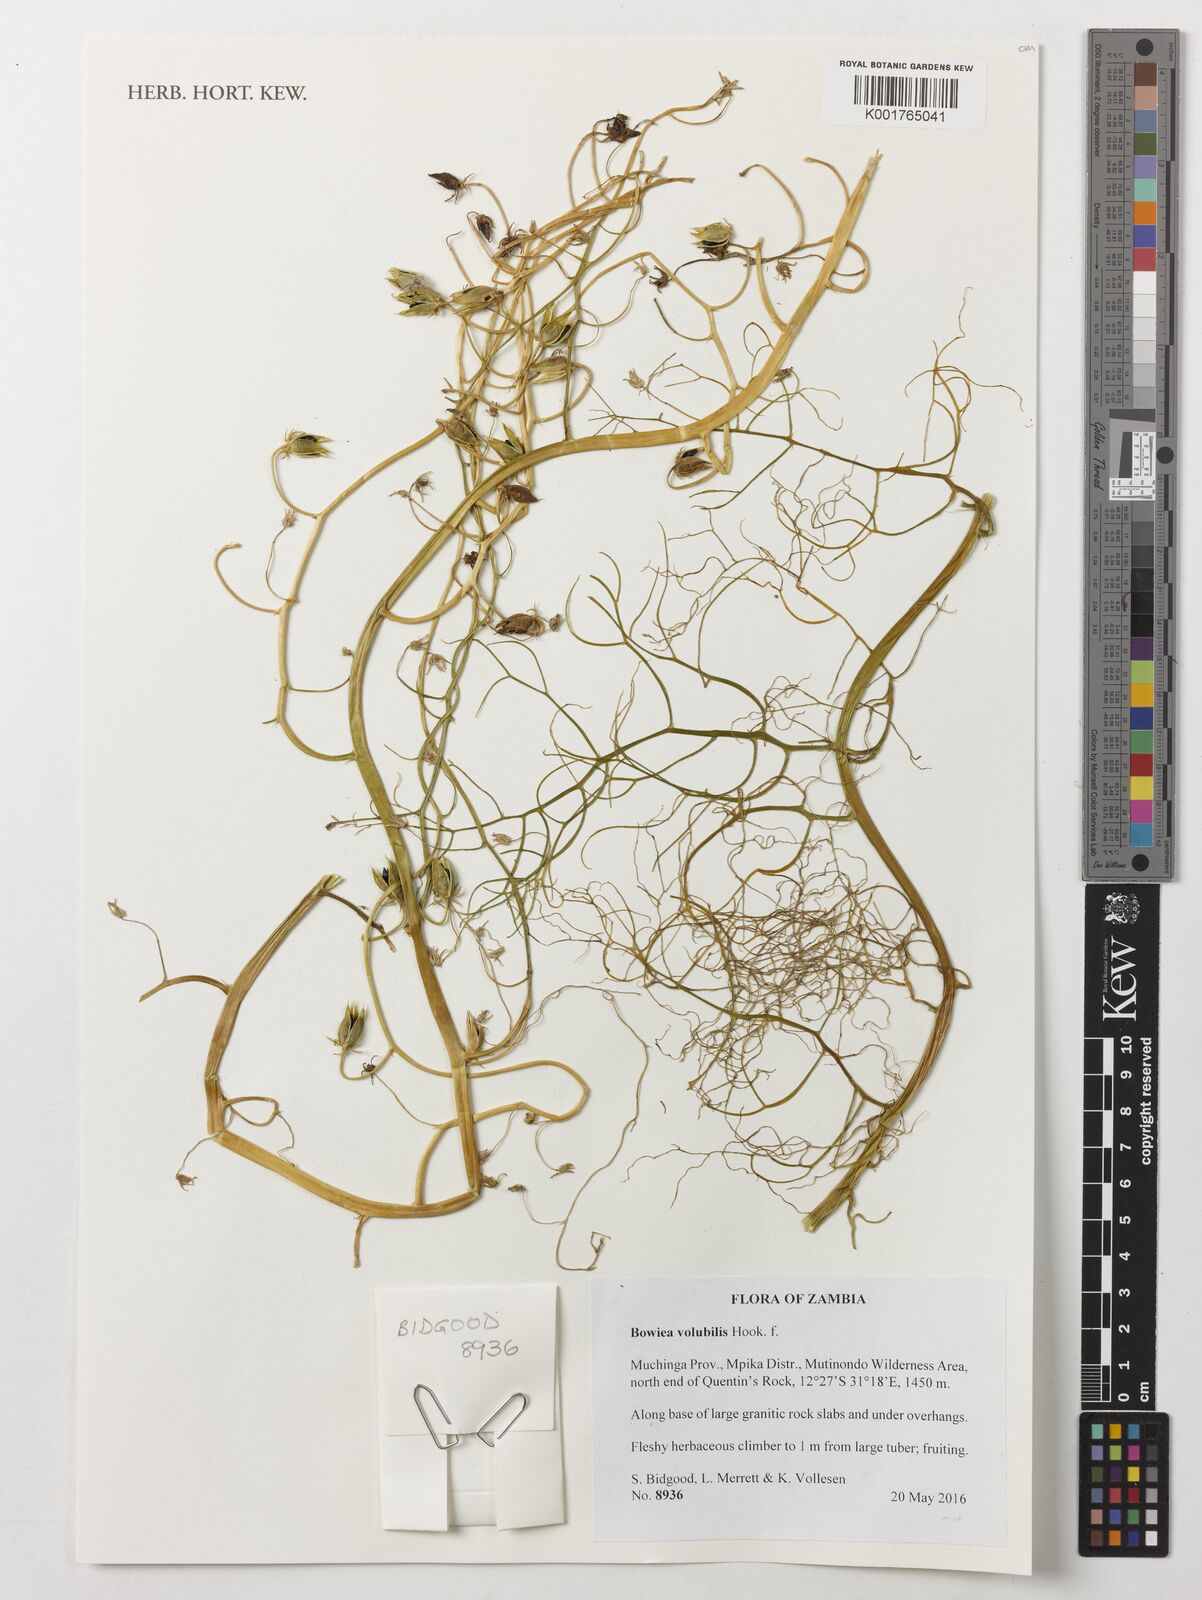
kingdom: Plantae
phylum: Tracheophyta
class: Liliopsida
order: Asparagales
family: Asparagaceae
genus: Bowiea
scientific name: Bowiea volubilis
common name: Climbing-onion
